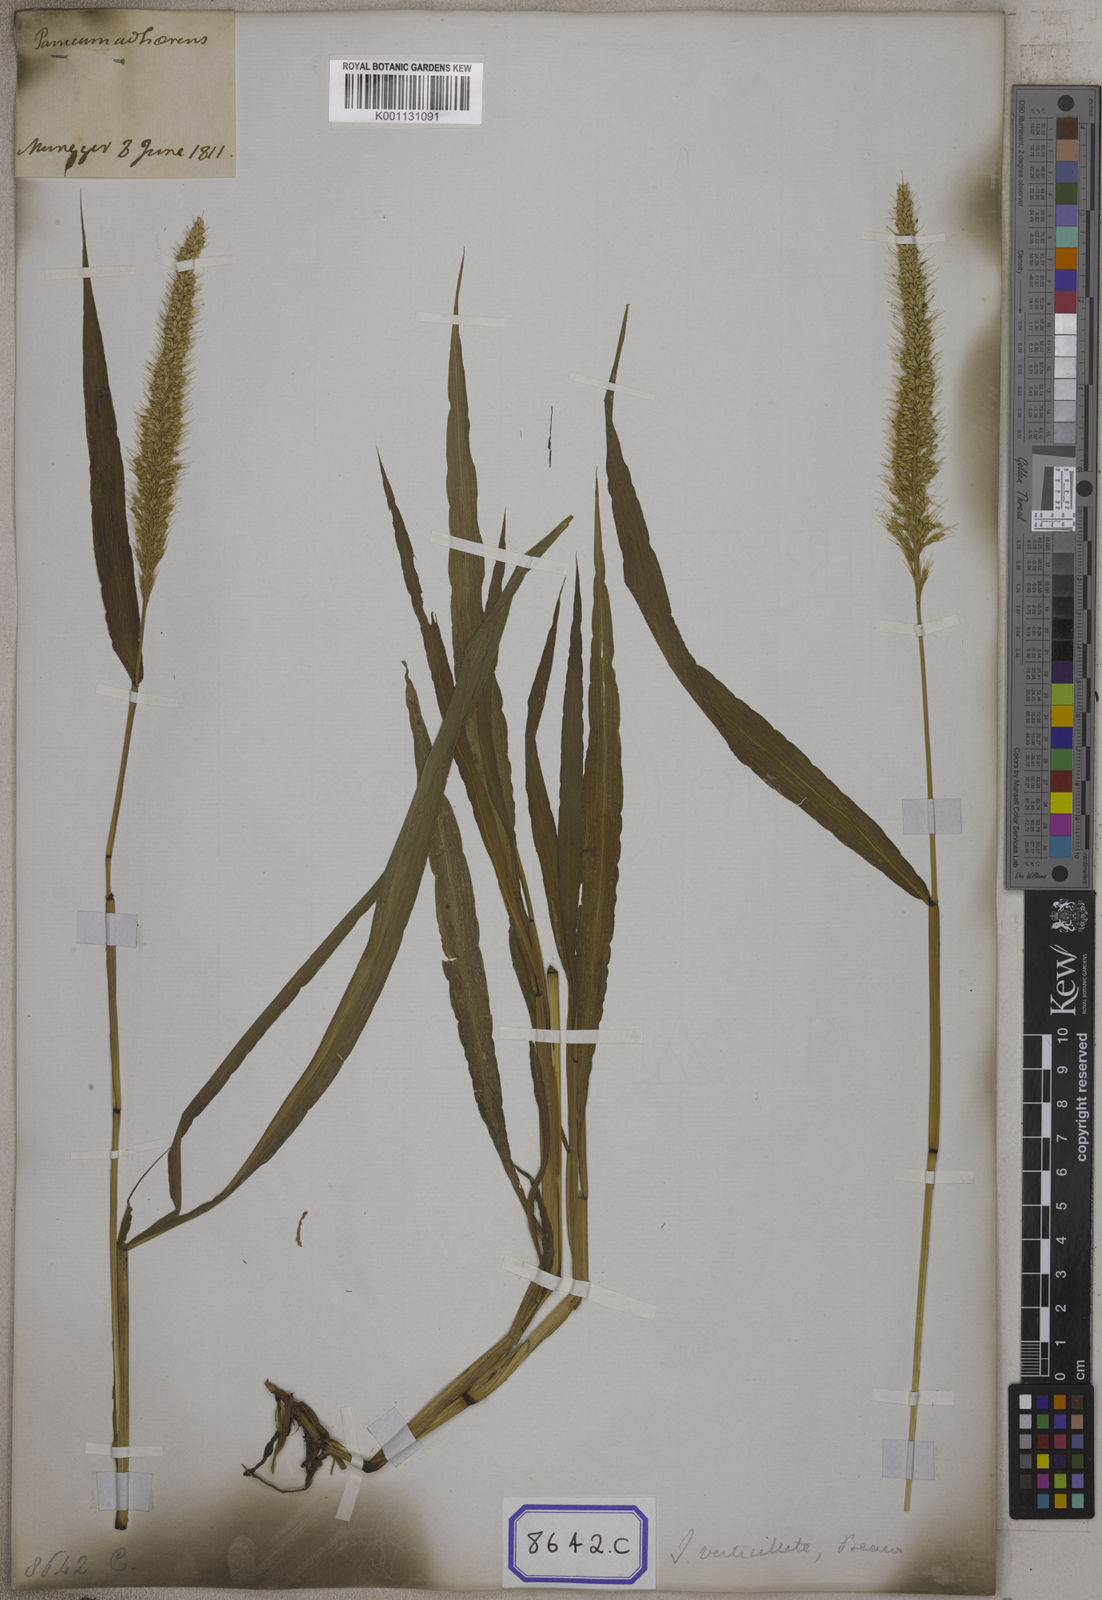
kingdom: Plantae
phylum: Tracheophyta
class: Liliopsida
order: Poales
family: Poaceae
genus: Setaria
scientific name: Setaria verticillata
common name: Hooked bristlegrass
